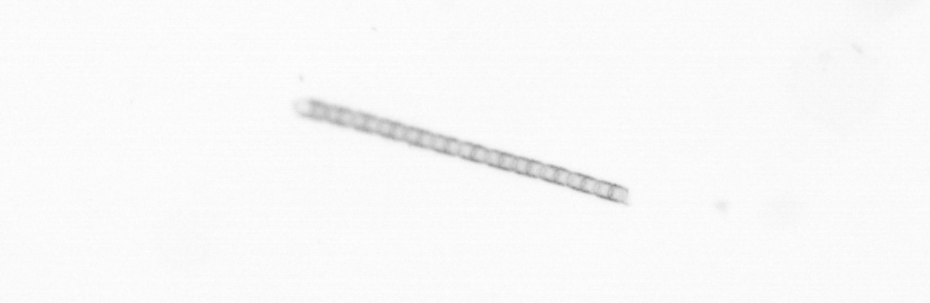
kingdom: Chromista
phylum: Ochrophyta
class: Bacillariophyceae
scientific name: Bacillariophyceae
